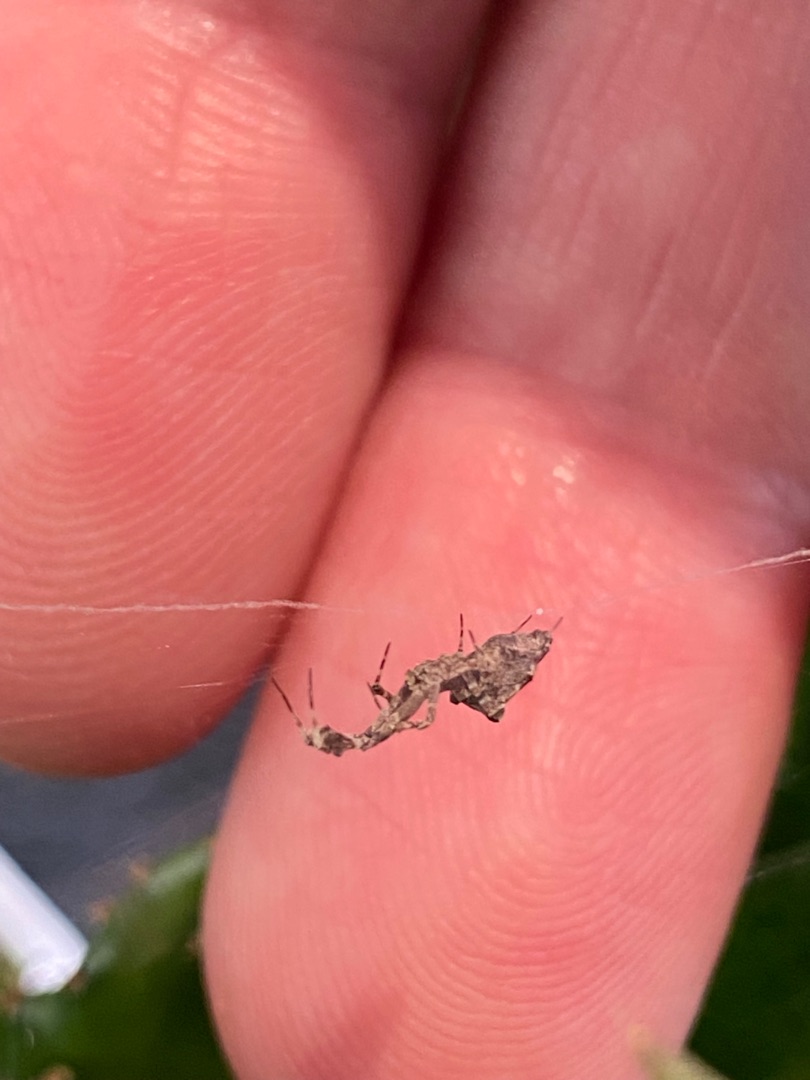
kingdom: Animalia
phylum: Arthropoda
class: Arachnida
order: Araneae
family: Uloboridae
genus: Uloborus
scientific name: Uloborus plumipes
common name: Fjerbenet edderkop
